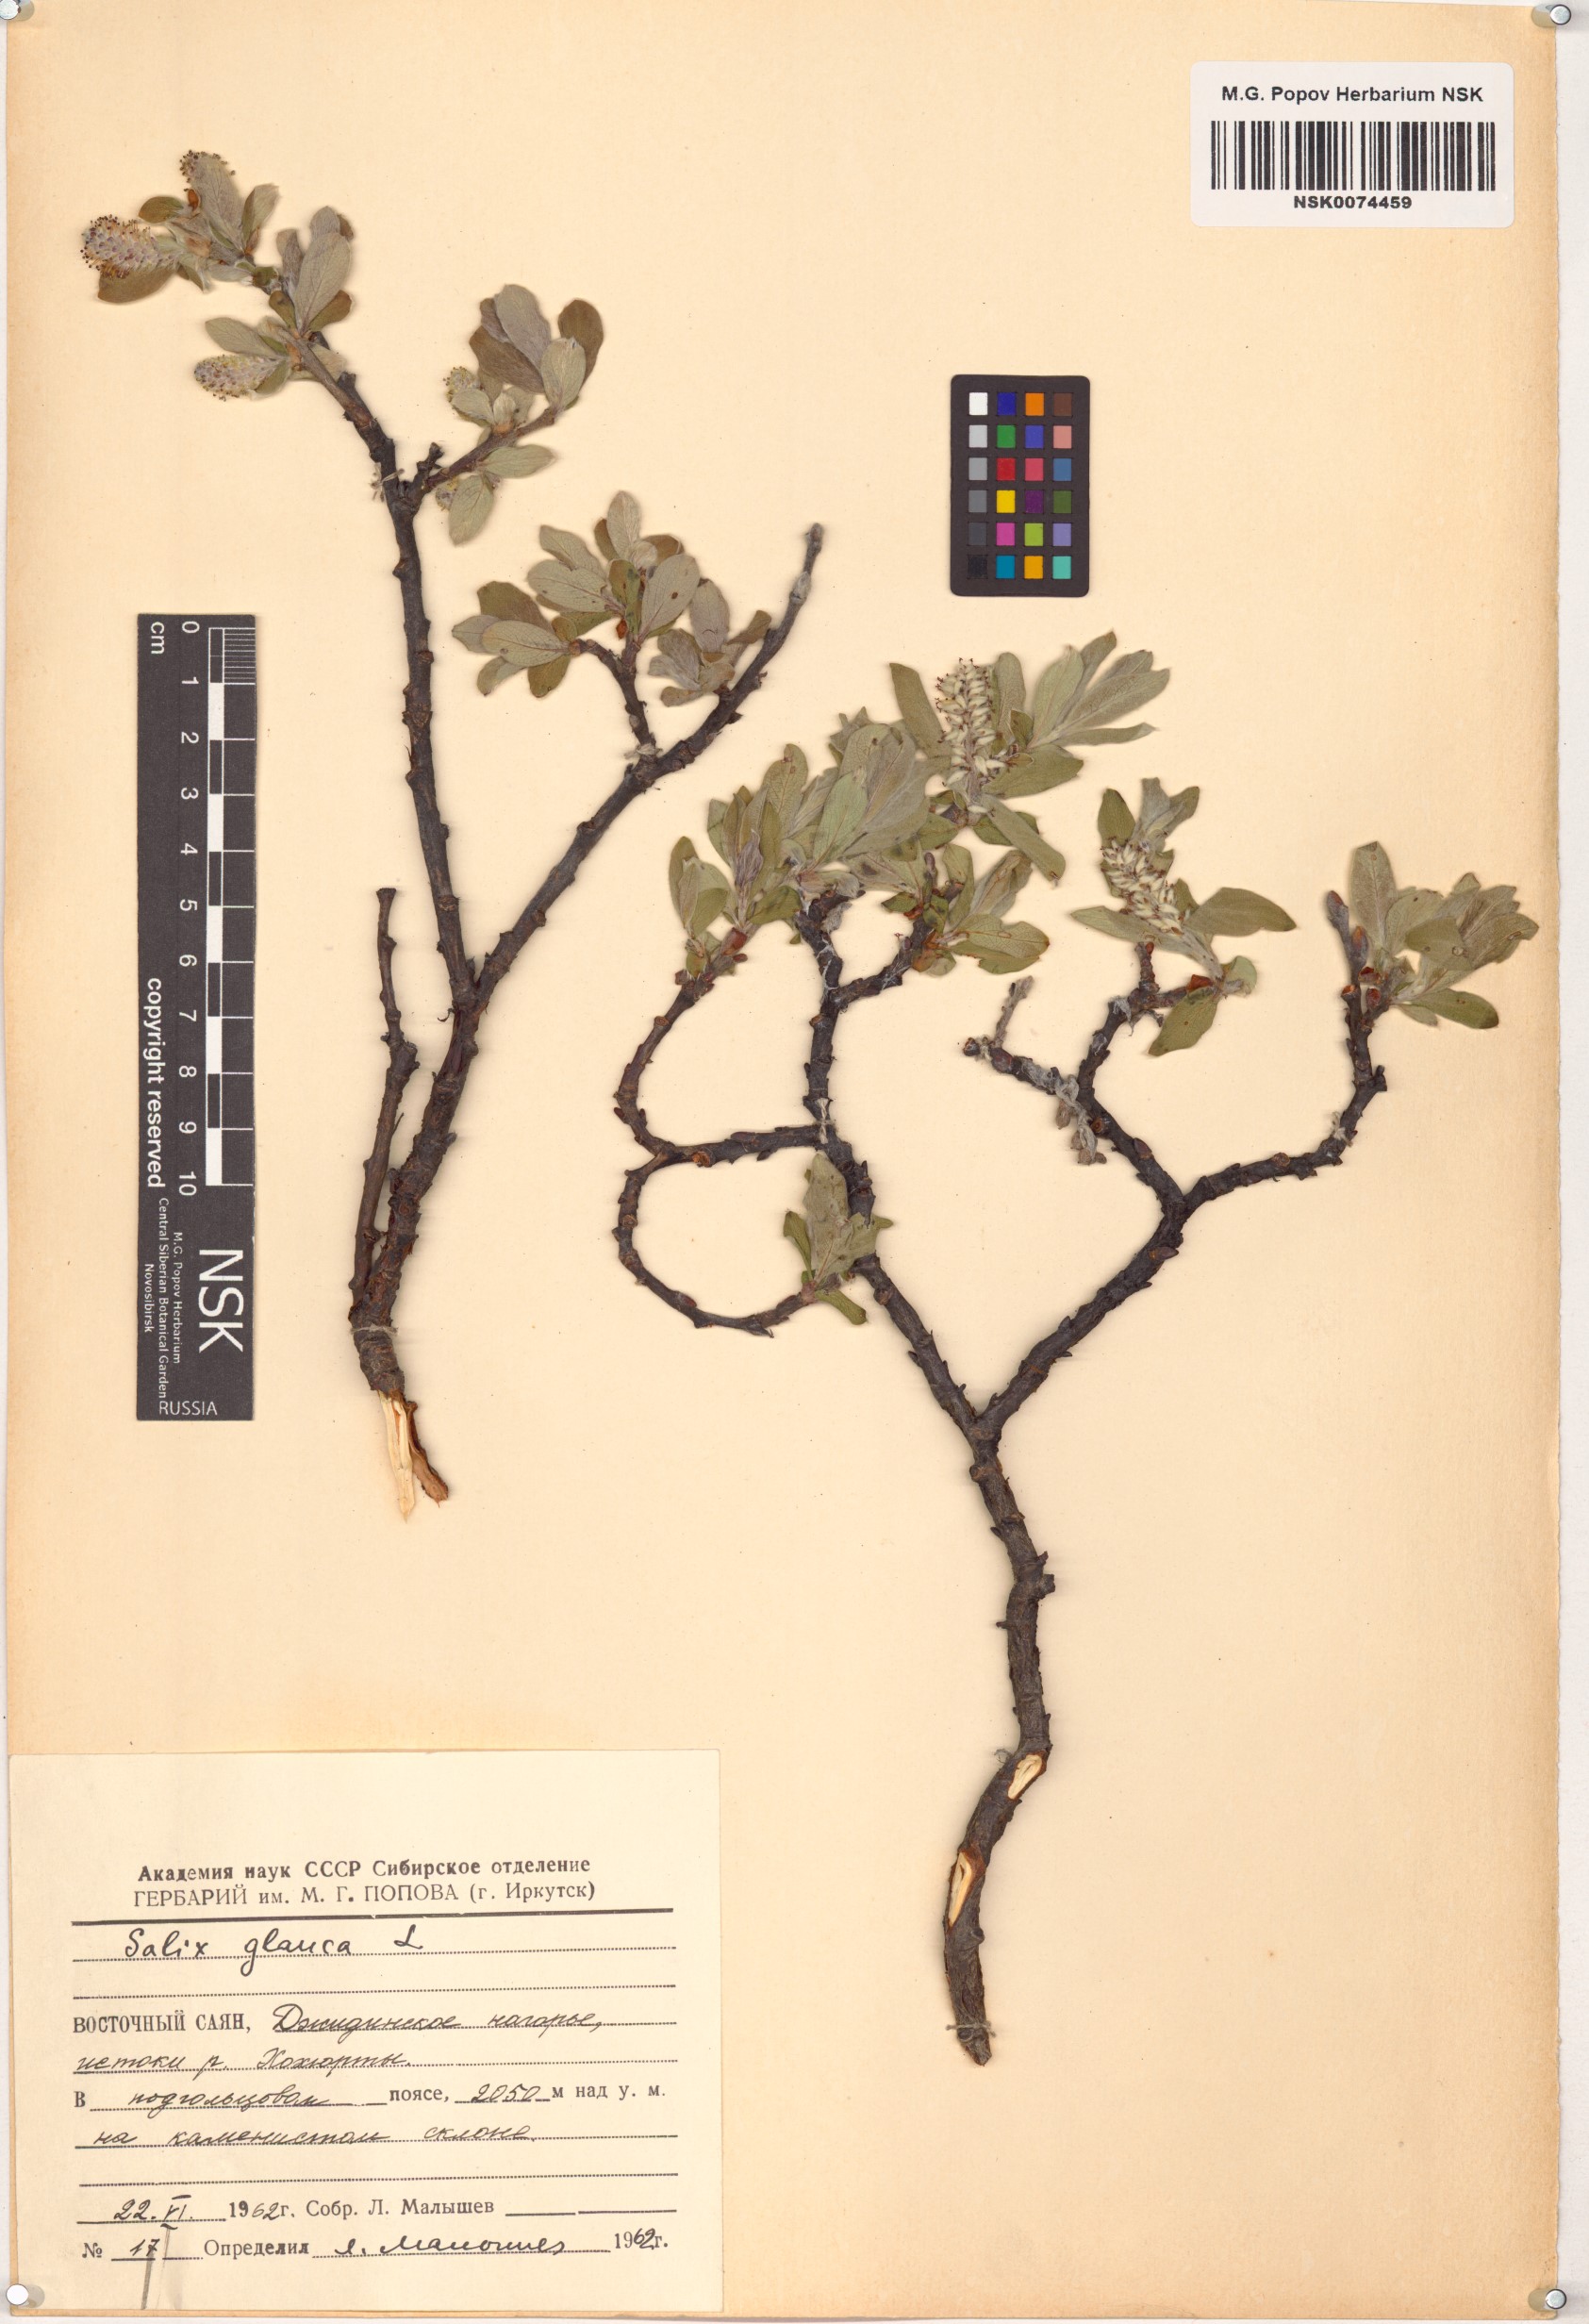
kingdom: Plantae
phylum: Tracheophyta
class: Magnoliopsida
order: Malpighiales
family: Salicaceae
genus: Salix
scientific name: Salix glauca
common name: Glaucous willow
